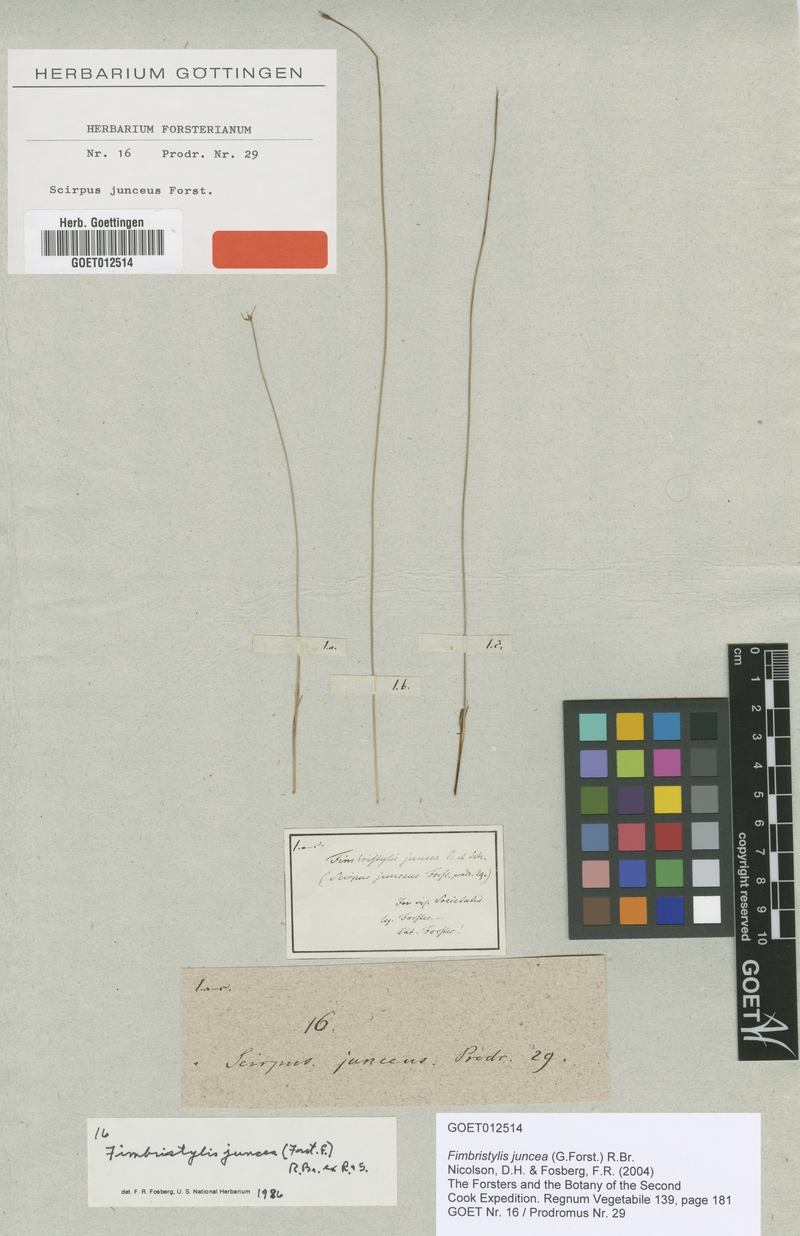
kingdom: Plantae
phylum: Tracheophyta
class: Liliopsida
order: Poales
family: Cyperaceae
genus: Fimbristylis
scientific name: Fimbristylis juncea
